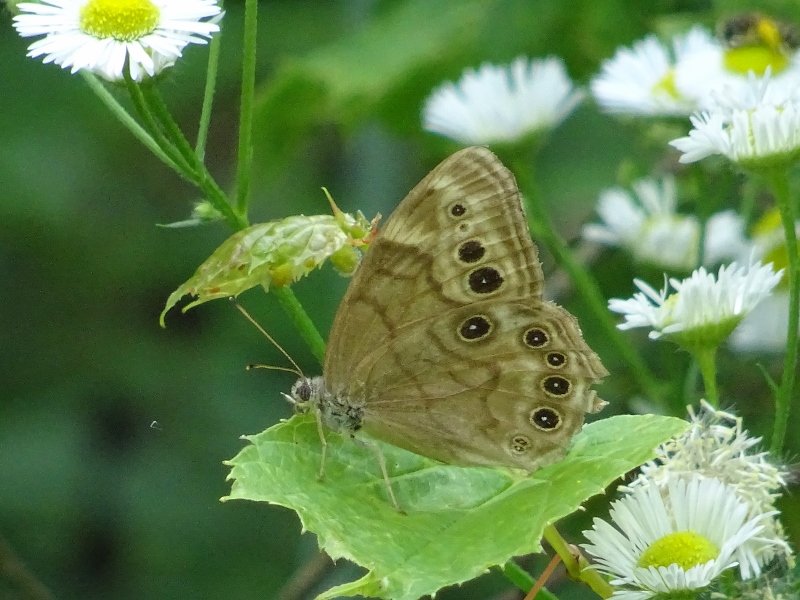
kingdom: Animalia
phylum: Arthropoda
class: Insecta
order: Lepidoptera
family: Nymphalidae
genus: Lethe
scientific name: Lethe anthedon
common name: Northern Pearly-Eye
